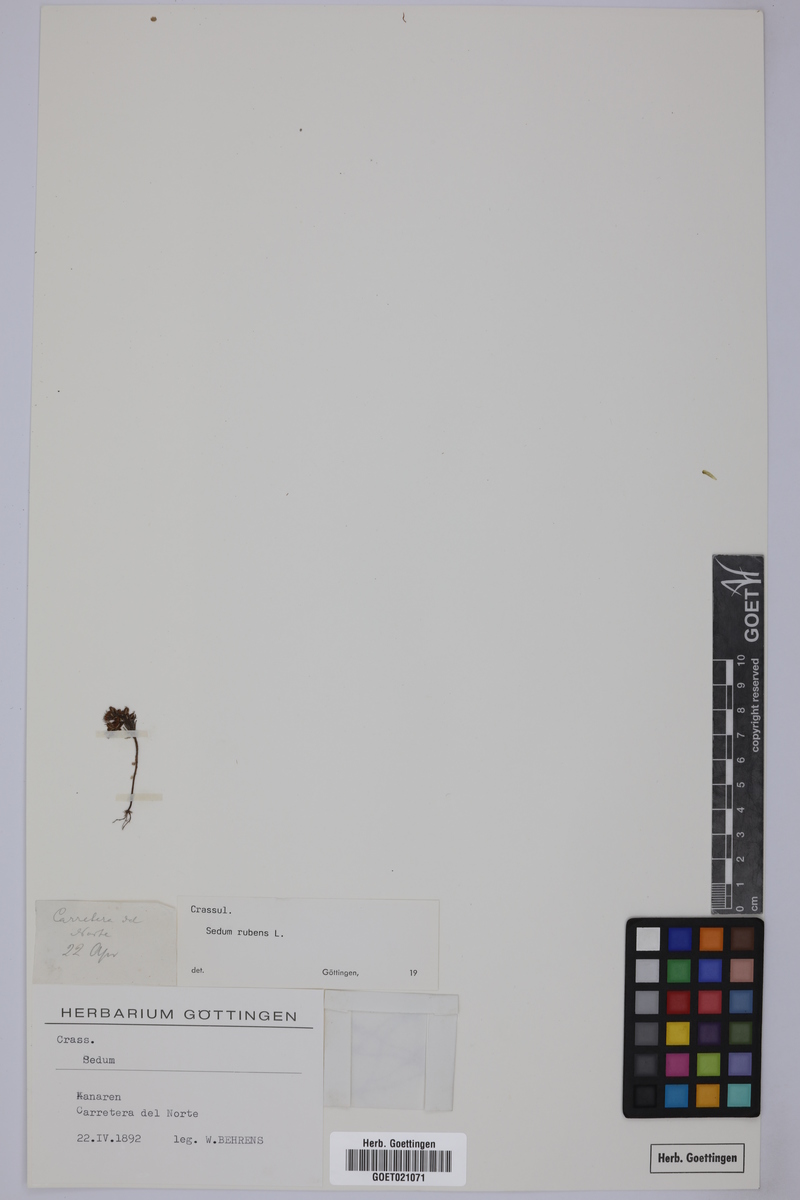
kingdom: Plantae
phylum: Tracheophyta
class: Magnoliopsida
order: Saxifragales
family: Crassulaceae
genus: Sedum
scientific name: Sedum rubens
